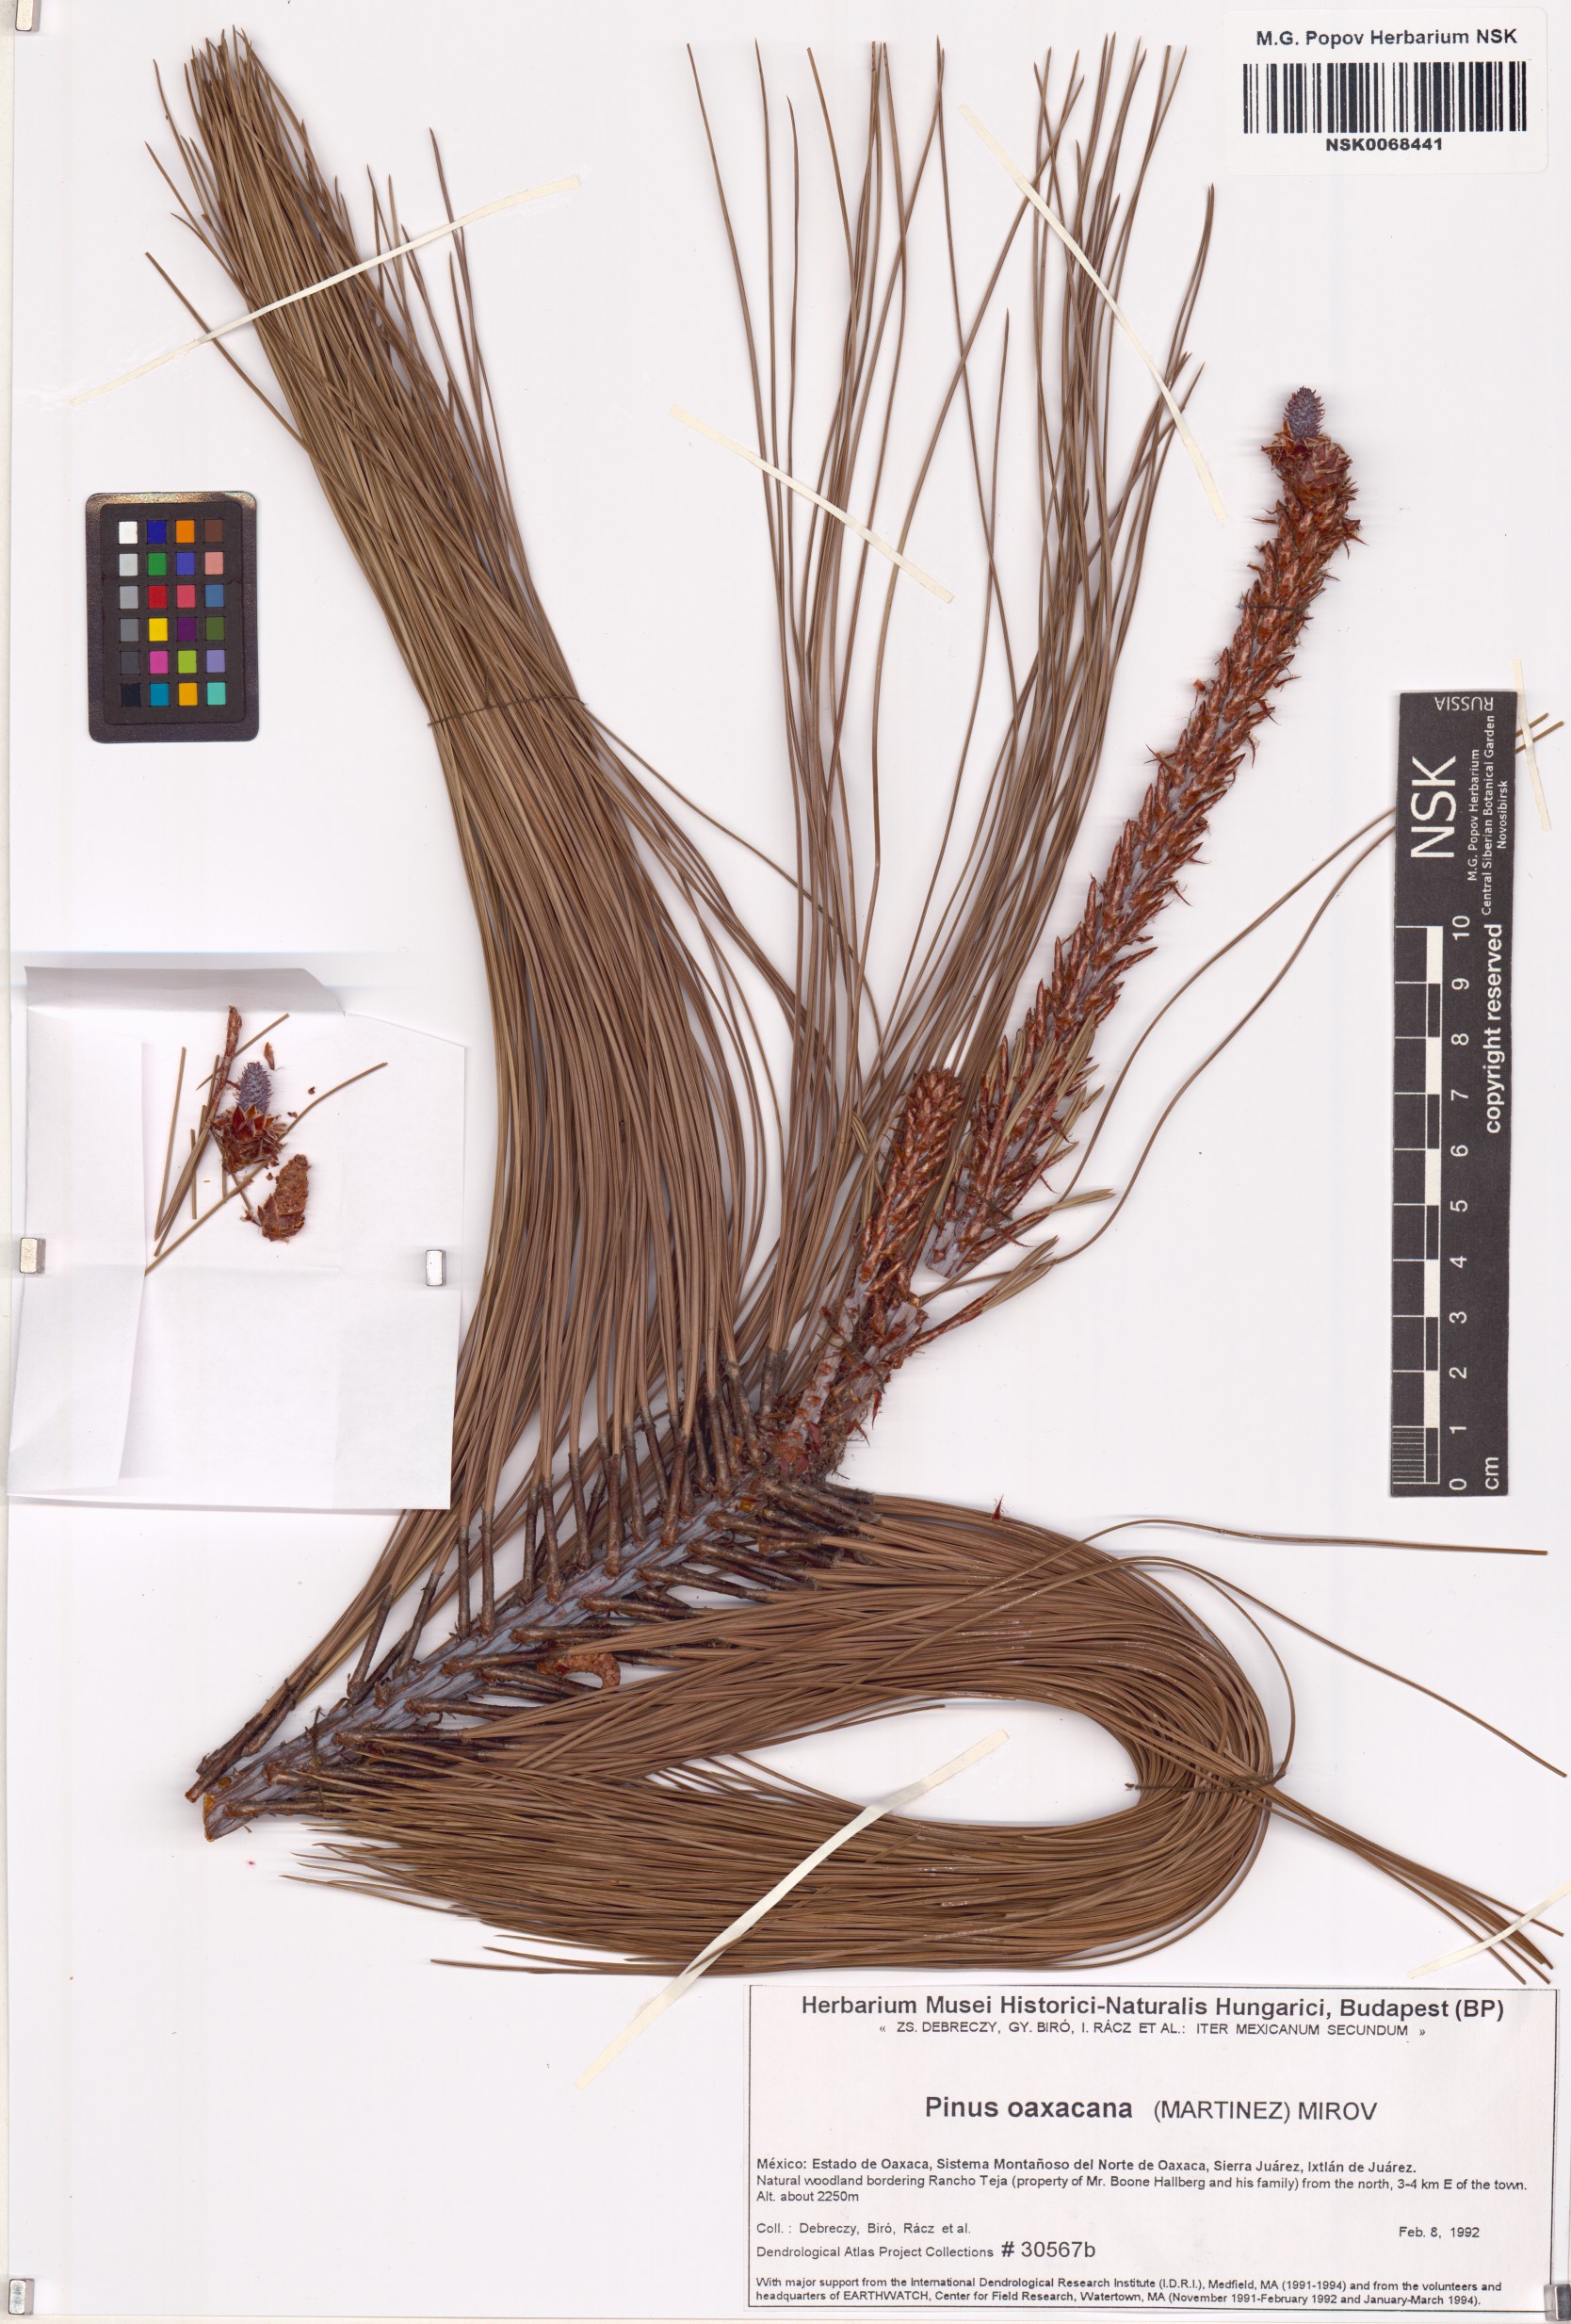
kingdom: Plantae
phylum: Tracheophyta
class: Pinopsida
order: Pinales
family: Pinaceae
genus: Pinus
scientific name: Pinus pseudostrobus
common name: False weymouth pine
